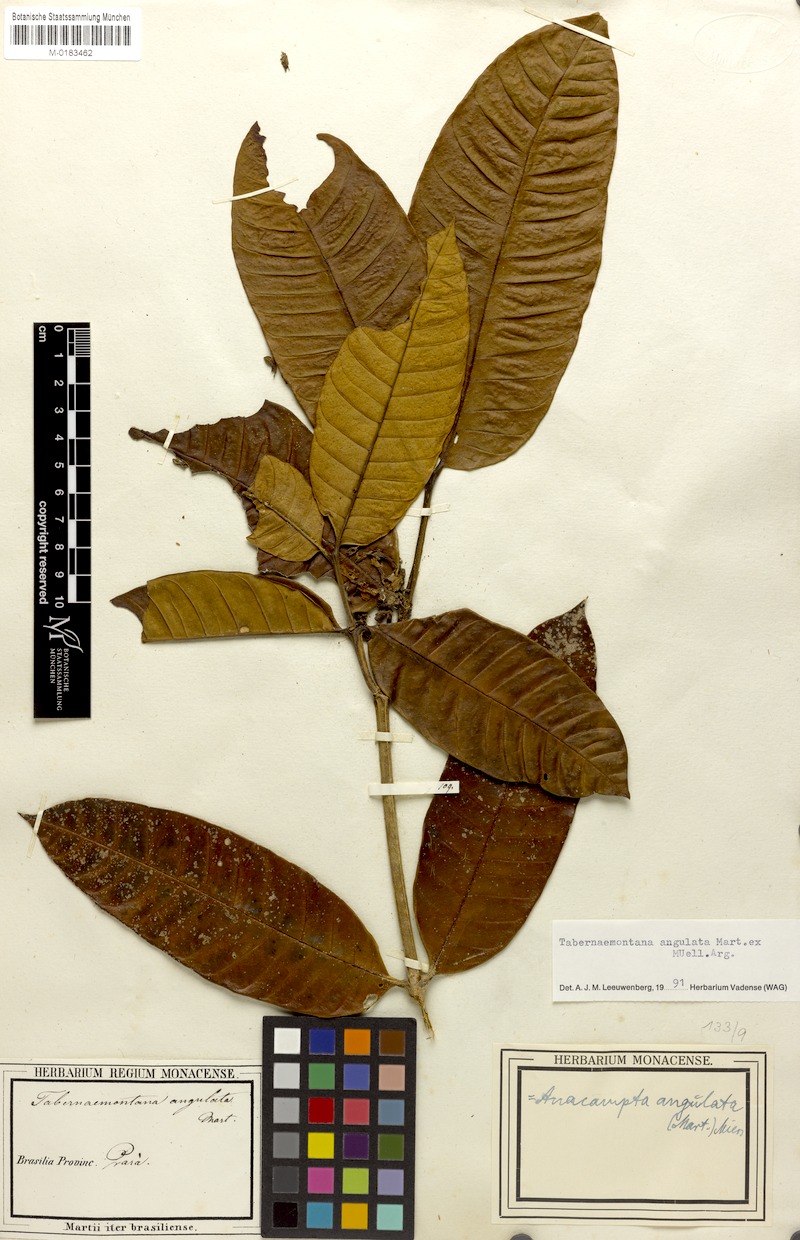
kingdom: Plantae
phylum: Tracheophyta
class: Magnoliopsida
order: Gentianales
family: Apocynaceae
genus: Tabernaemontana
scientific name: Tabernaemontana angulata
